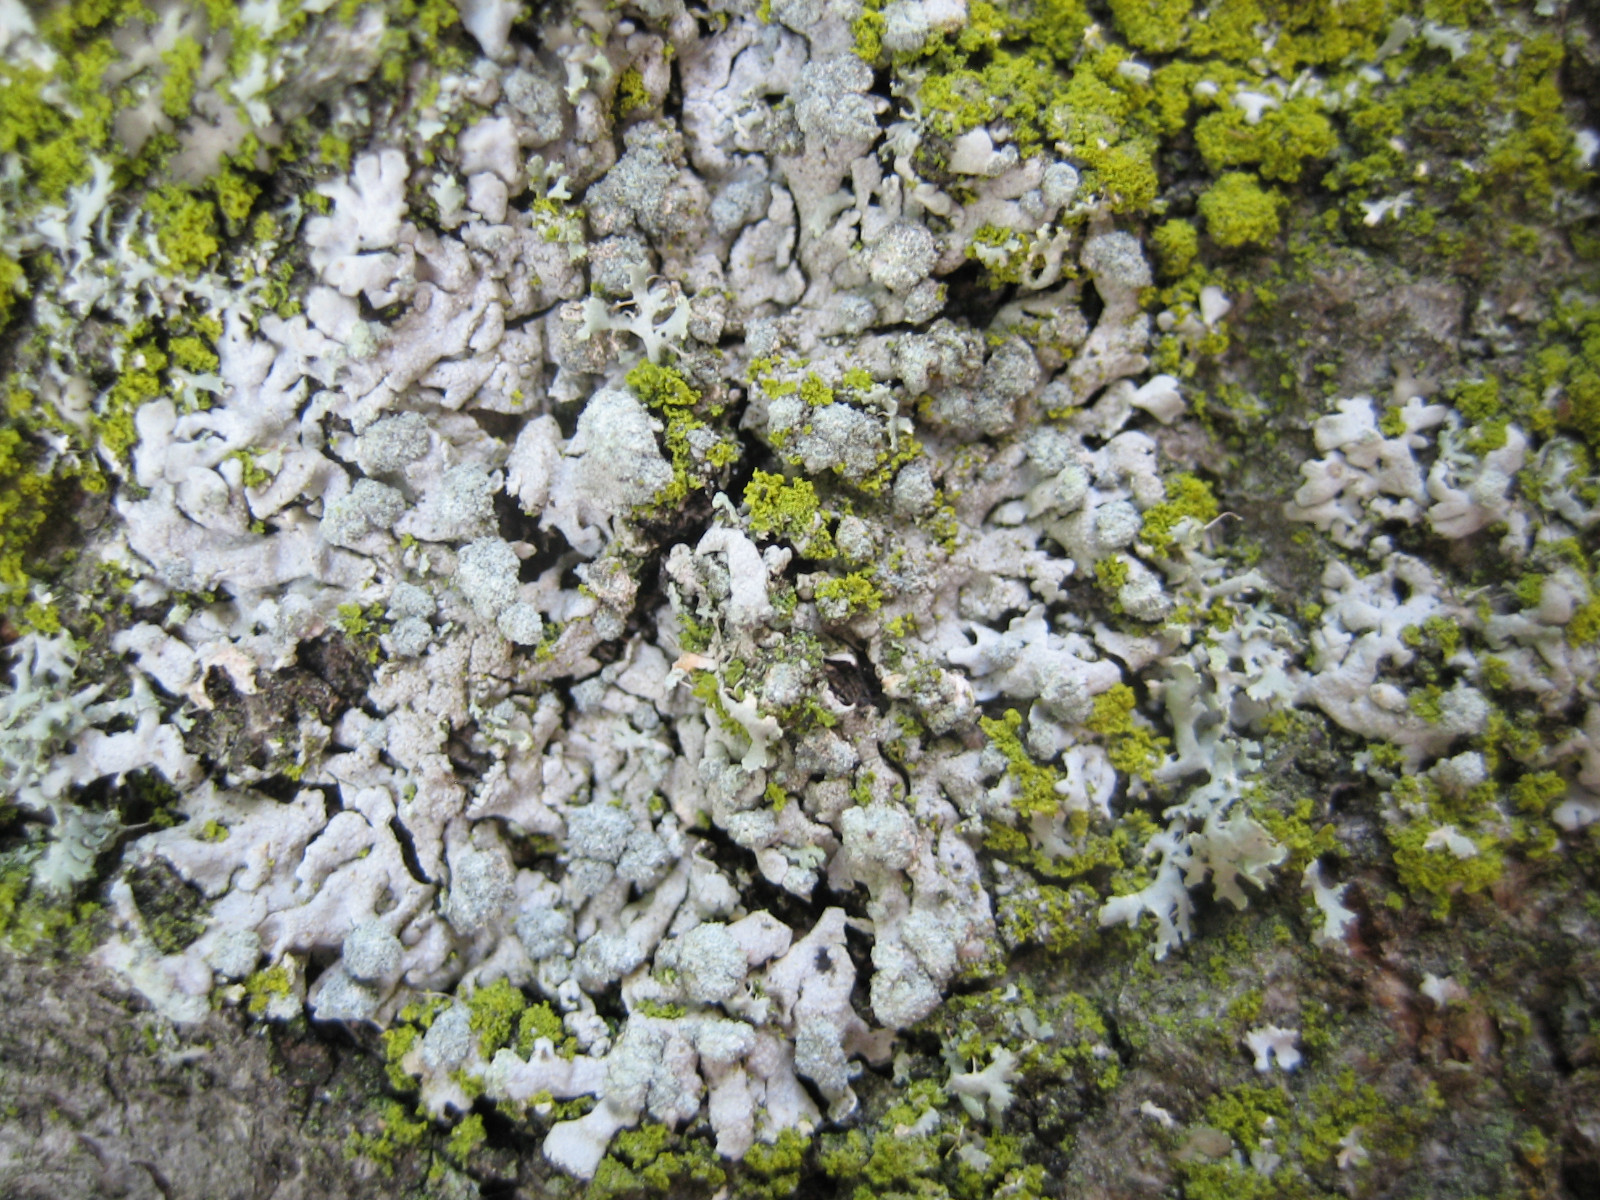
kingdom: Fungi
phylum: Ascomycota
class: Lecanoromycetes
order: Caliciales
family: Physciaceae
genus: Physcia
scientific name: Physcia caesia
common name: blågrå rosetlav
